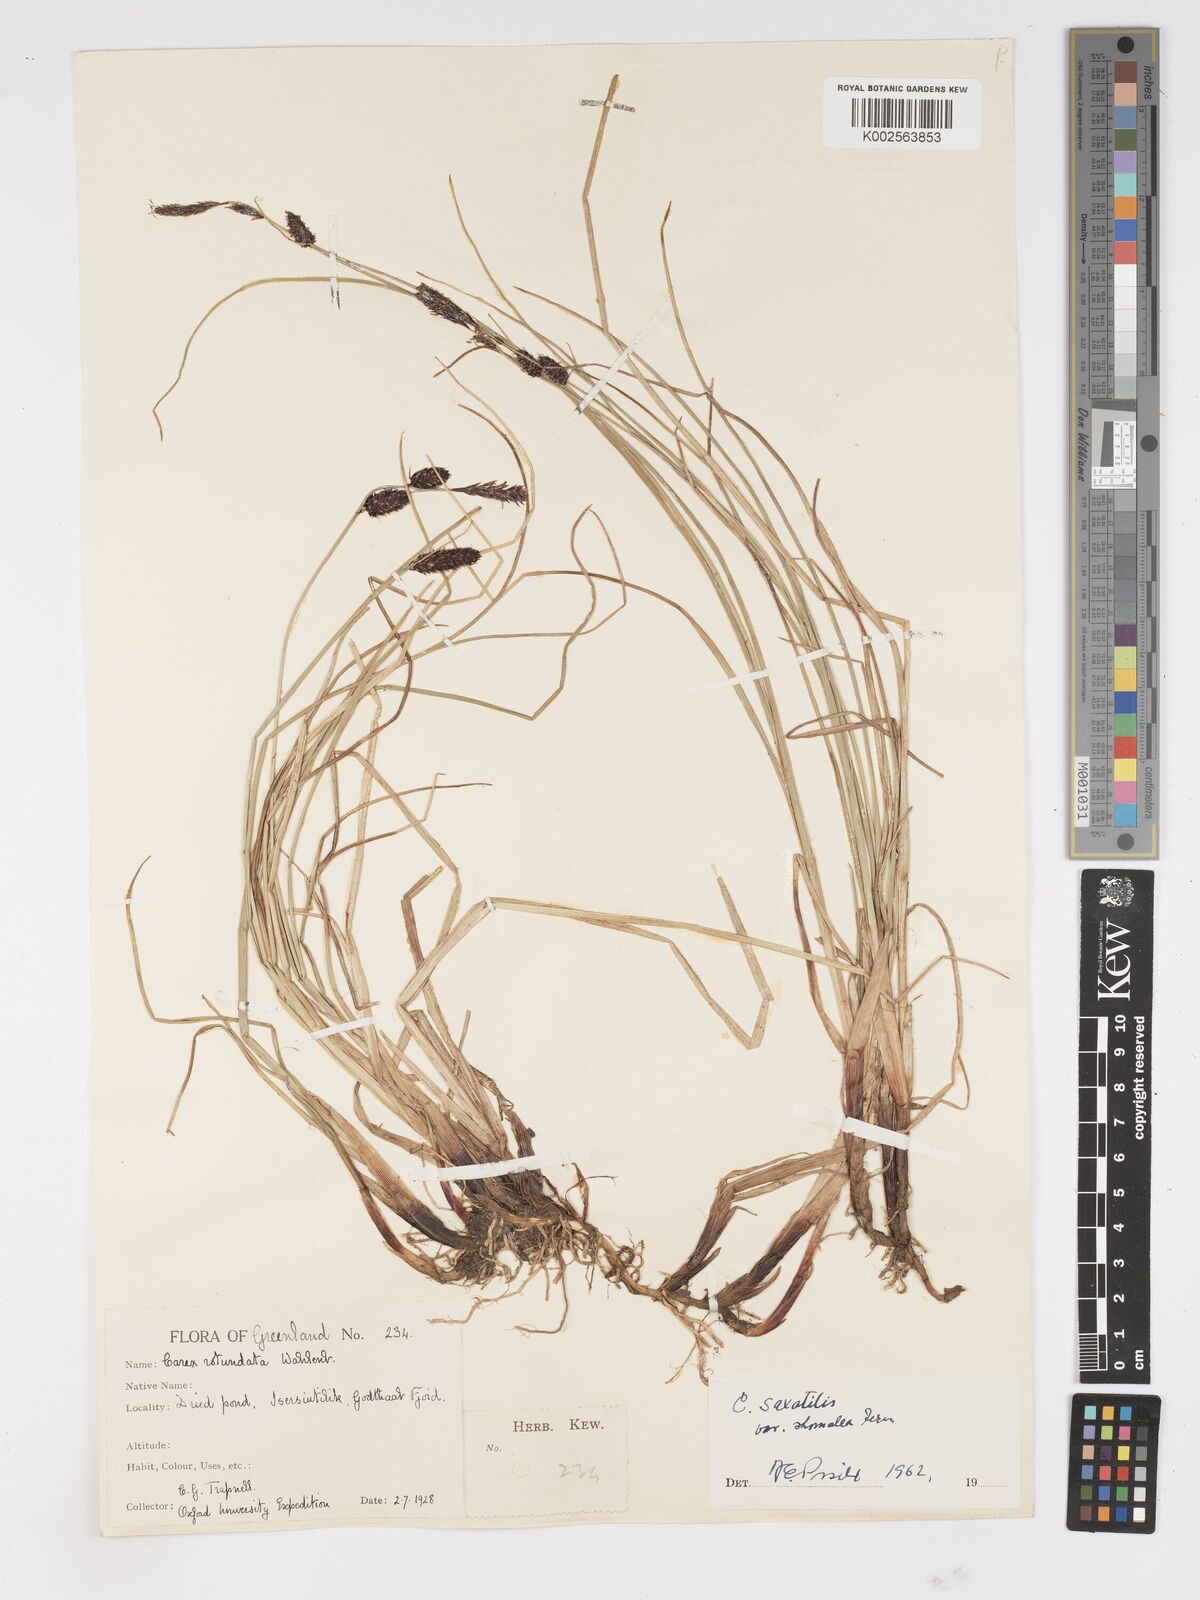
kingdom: Plantae
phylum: Tracheophyta
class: Liliopsida
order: Poales
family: Cyperaceae
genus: Carex
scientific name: Carex rotundata
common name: Round-fruited sedge
